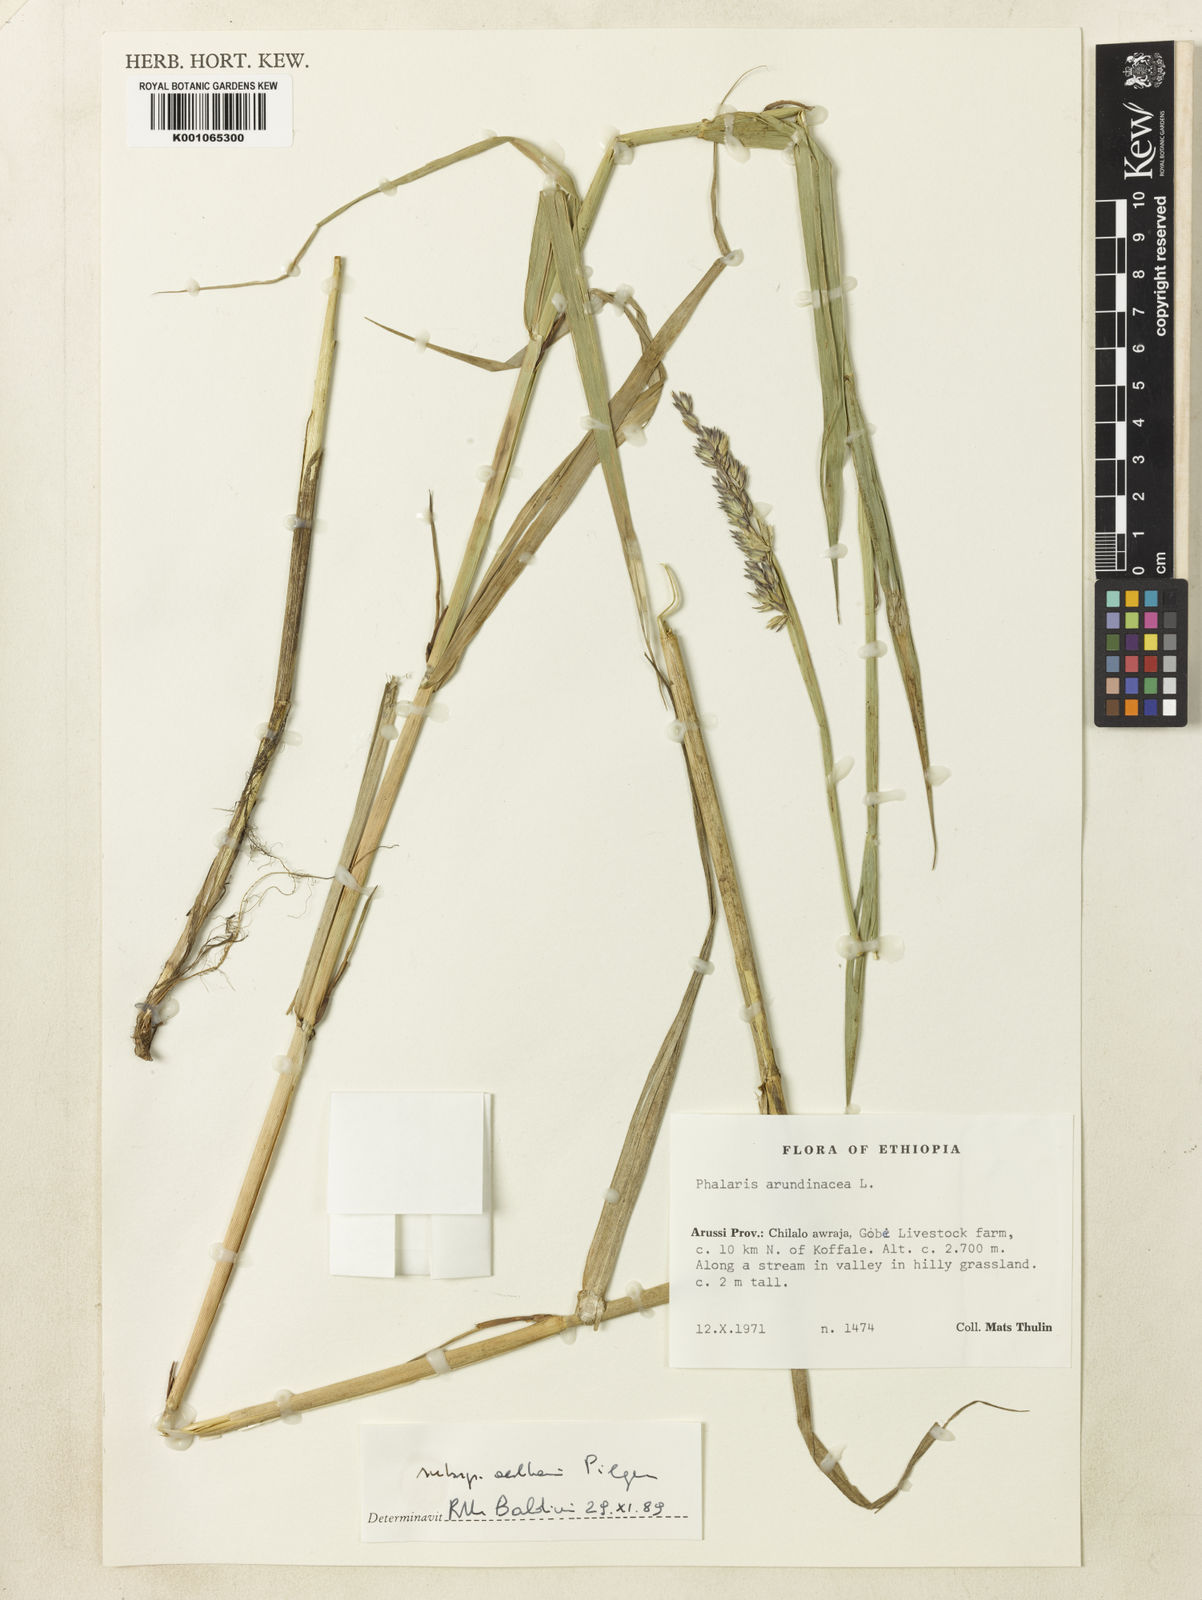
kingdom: Plantae
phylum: Tracheophyta
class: Liliopsida
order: Poales
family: Poaceae
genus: Phalaris
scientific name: Phalaris arundinacea
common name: Reed canary-grass
